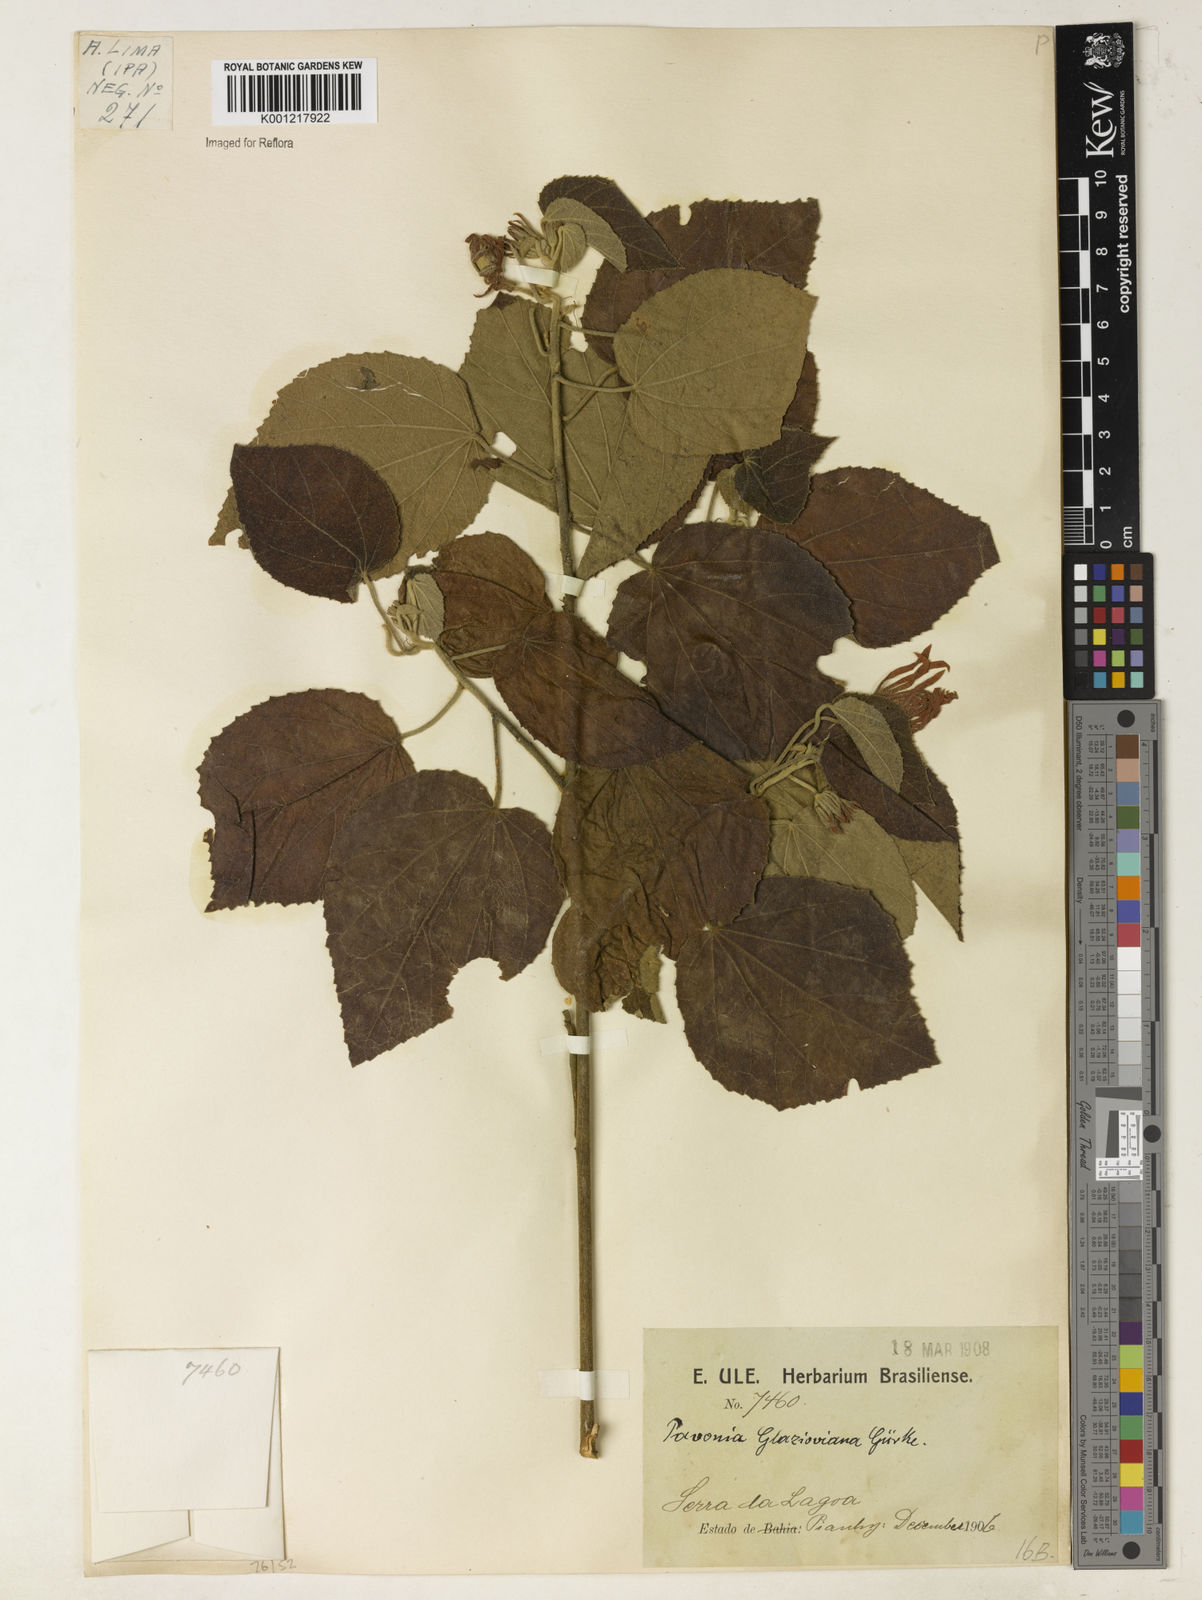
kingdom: Plantae
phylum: Tracheophyta
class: Magnoliopsida
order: Malvales
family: Malvaceae
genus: Pavonia
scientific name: Pavonia
